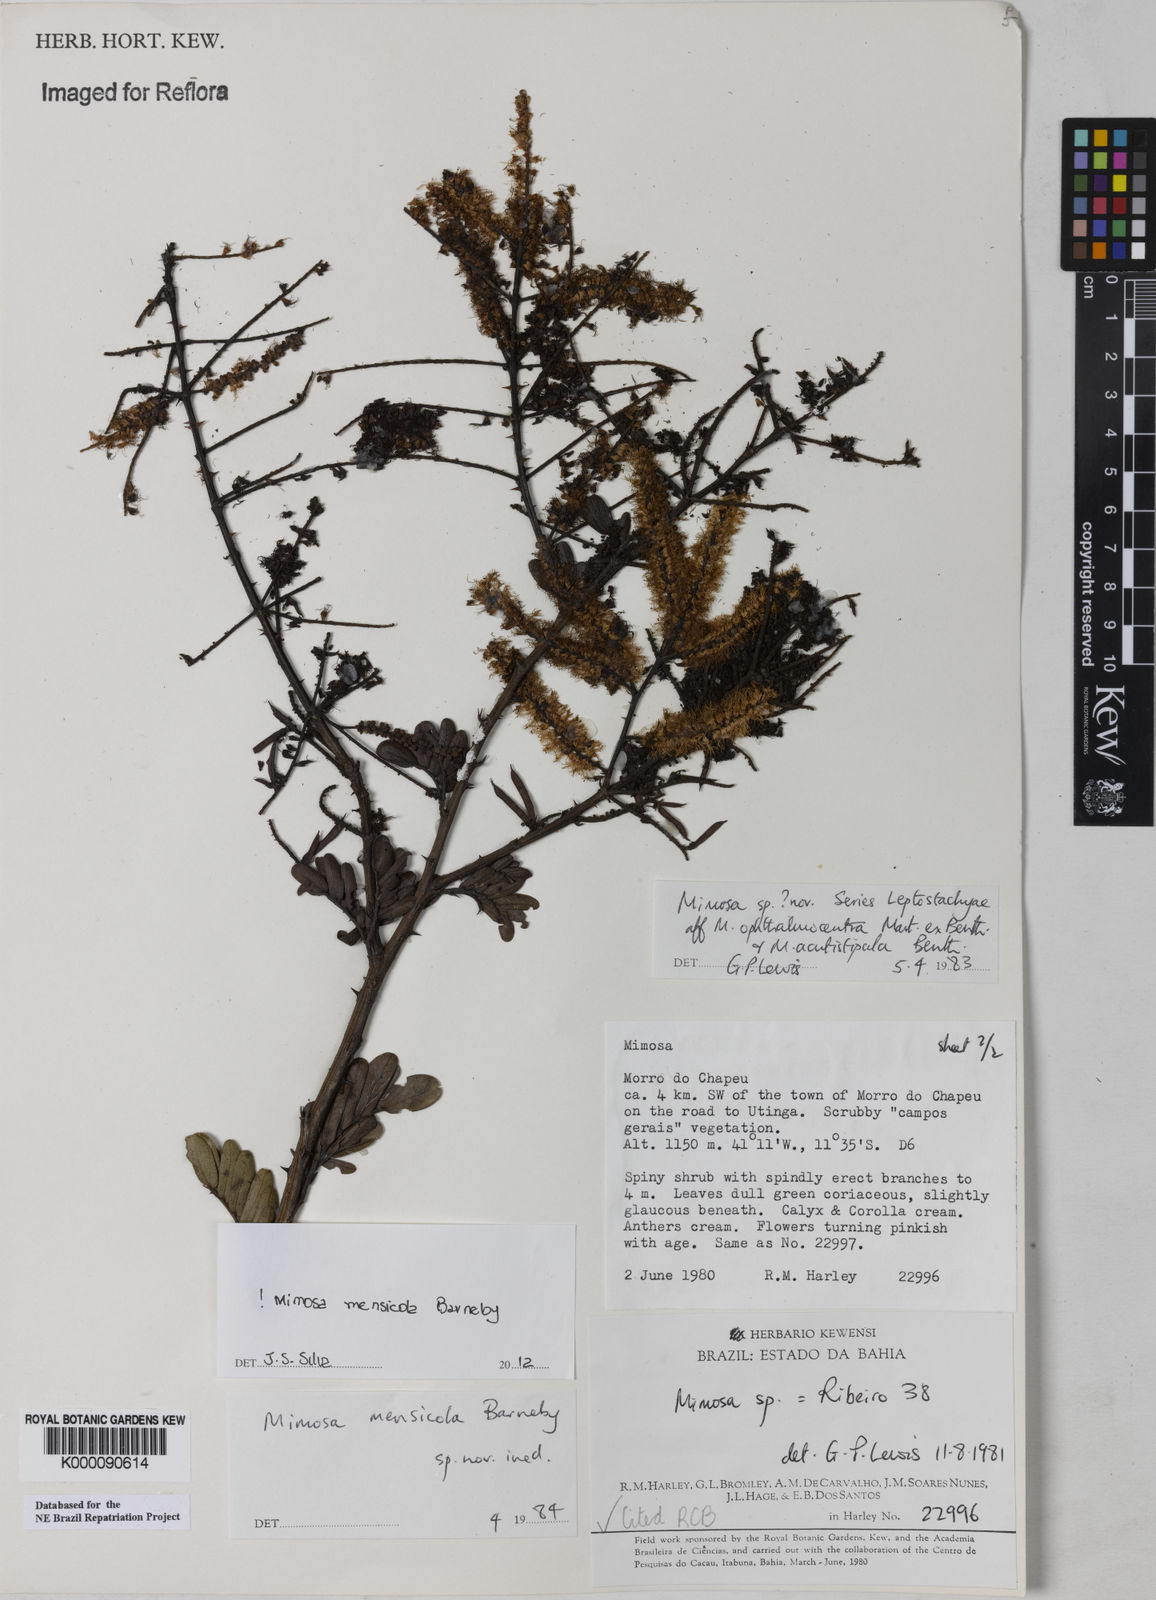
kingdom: Plantae
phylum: Tracheophyta
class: Magnoliopsida
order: Fabales
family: Fabaceae
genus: Mimosa
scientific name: Mimosa mensicola
